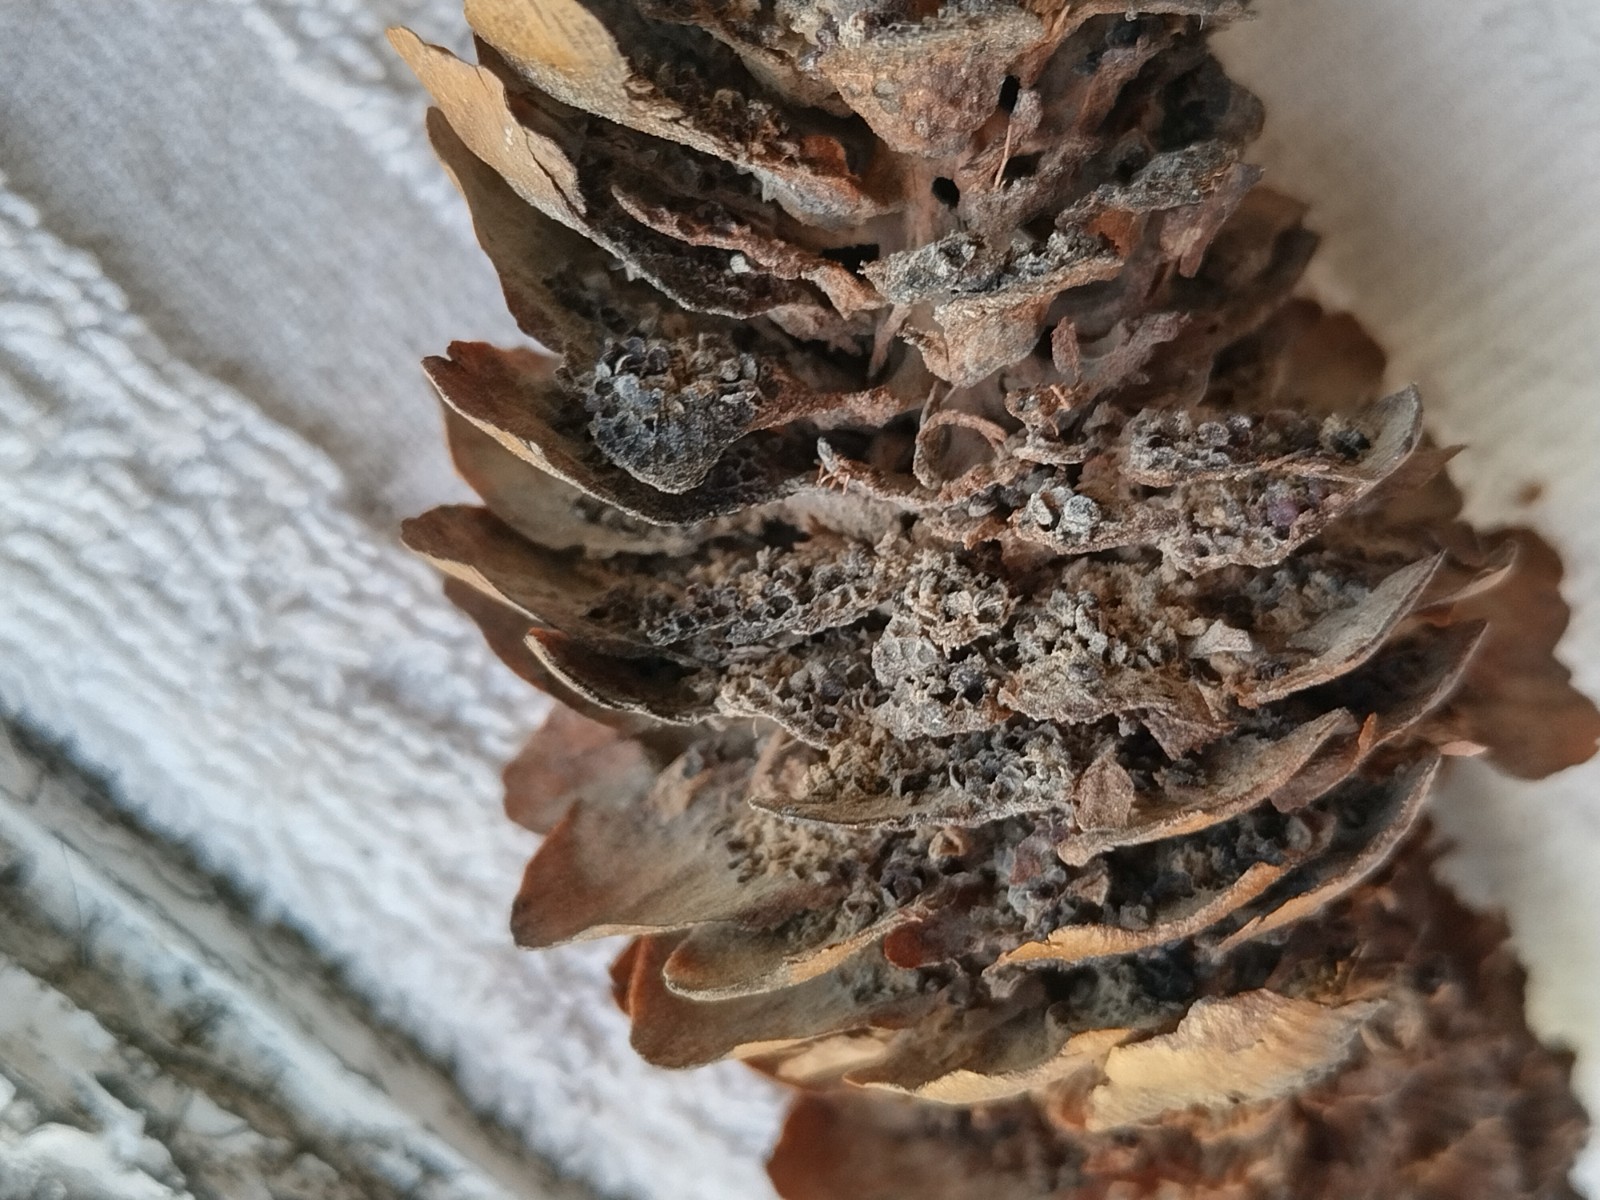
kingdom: Fungi
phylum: Basidiomycota
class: Pucciniomycetes
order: Pucciniales
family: Pucciniastraceae
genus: Thekopsora
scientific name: Thekopsora areolata
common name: grankogle-nålerust
